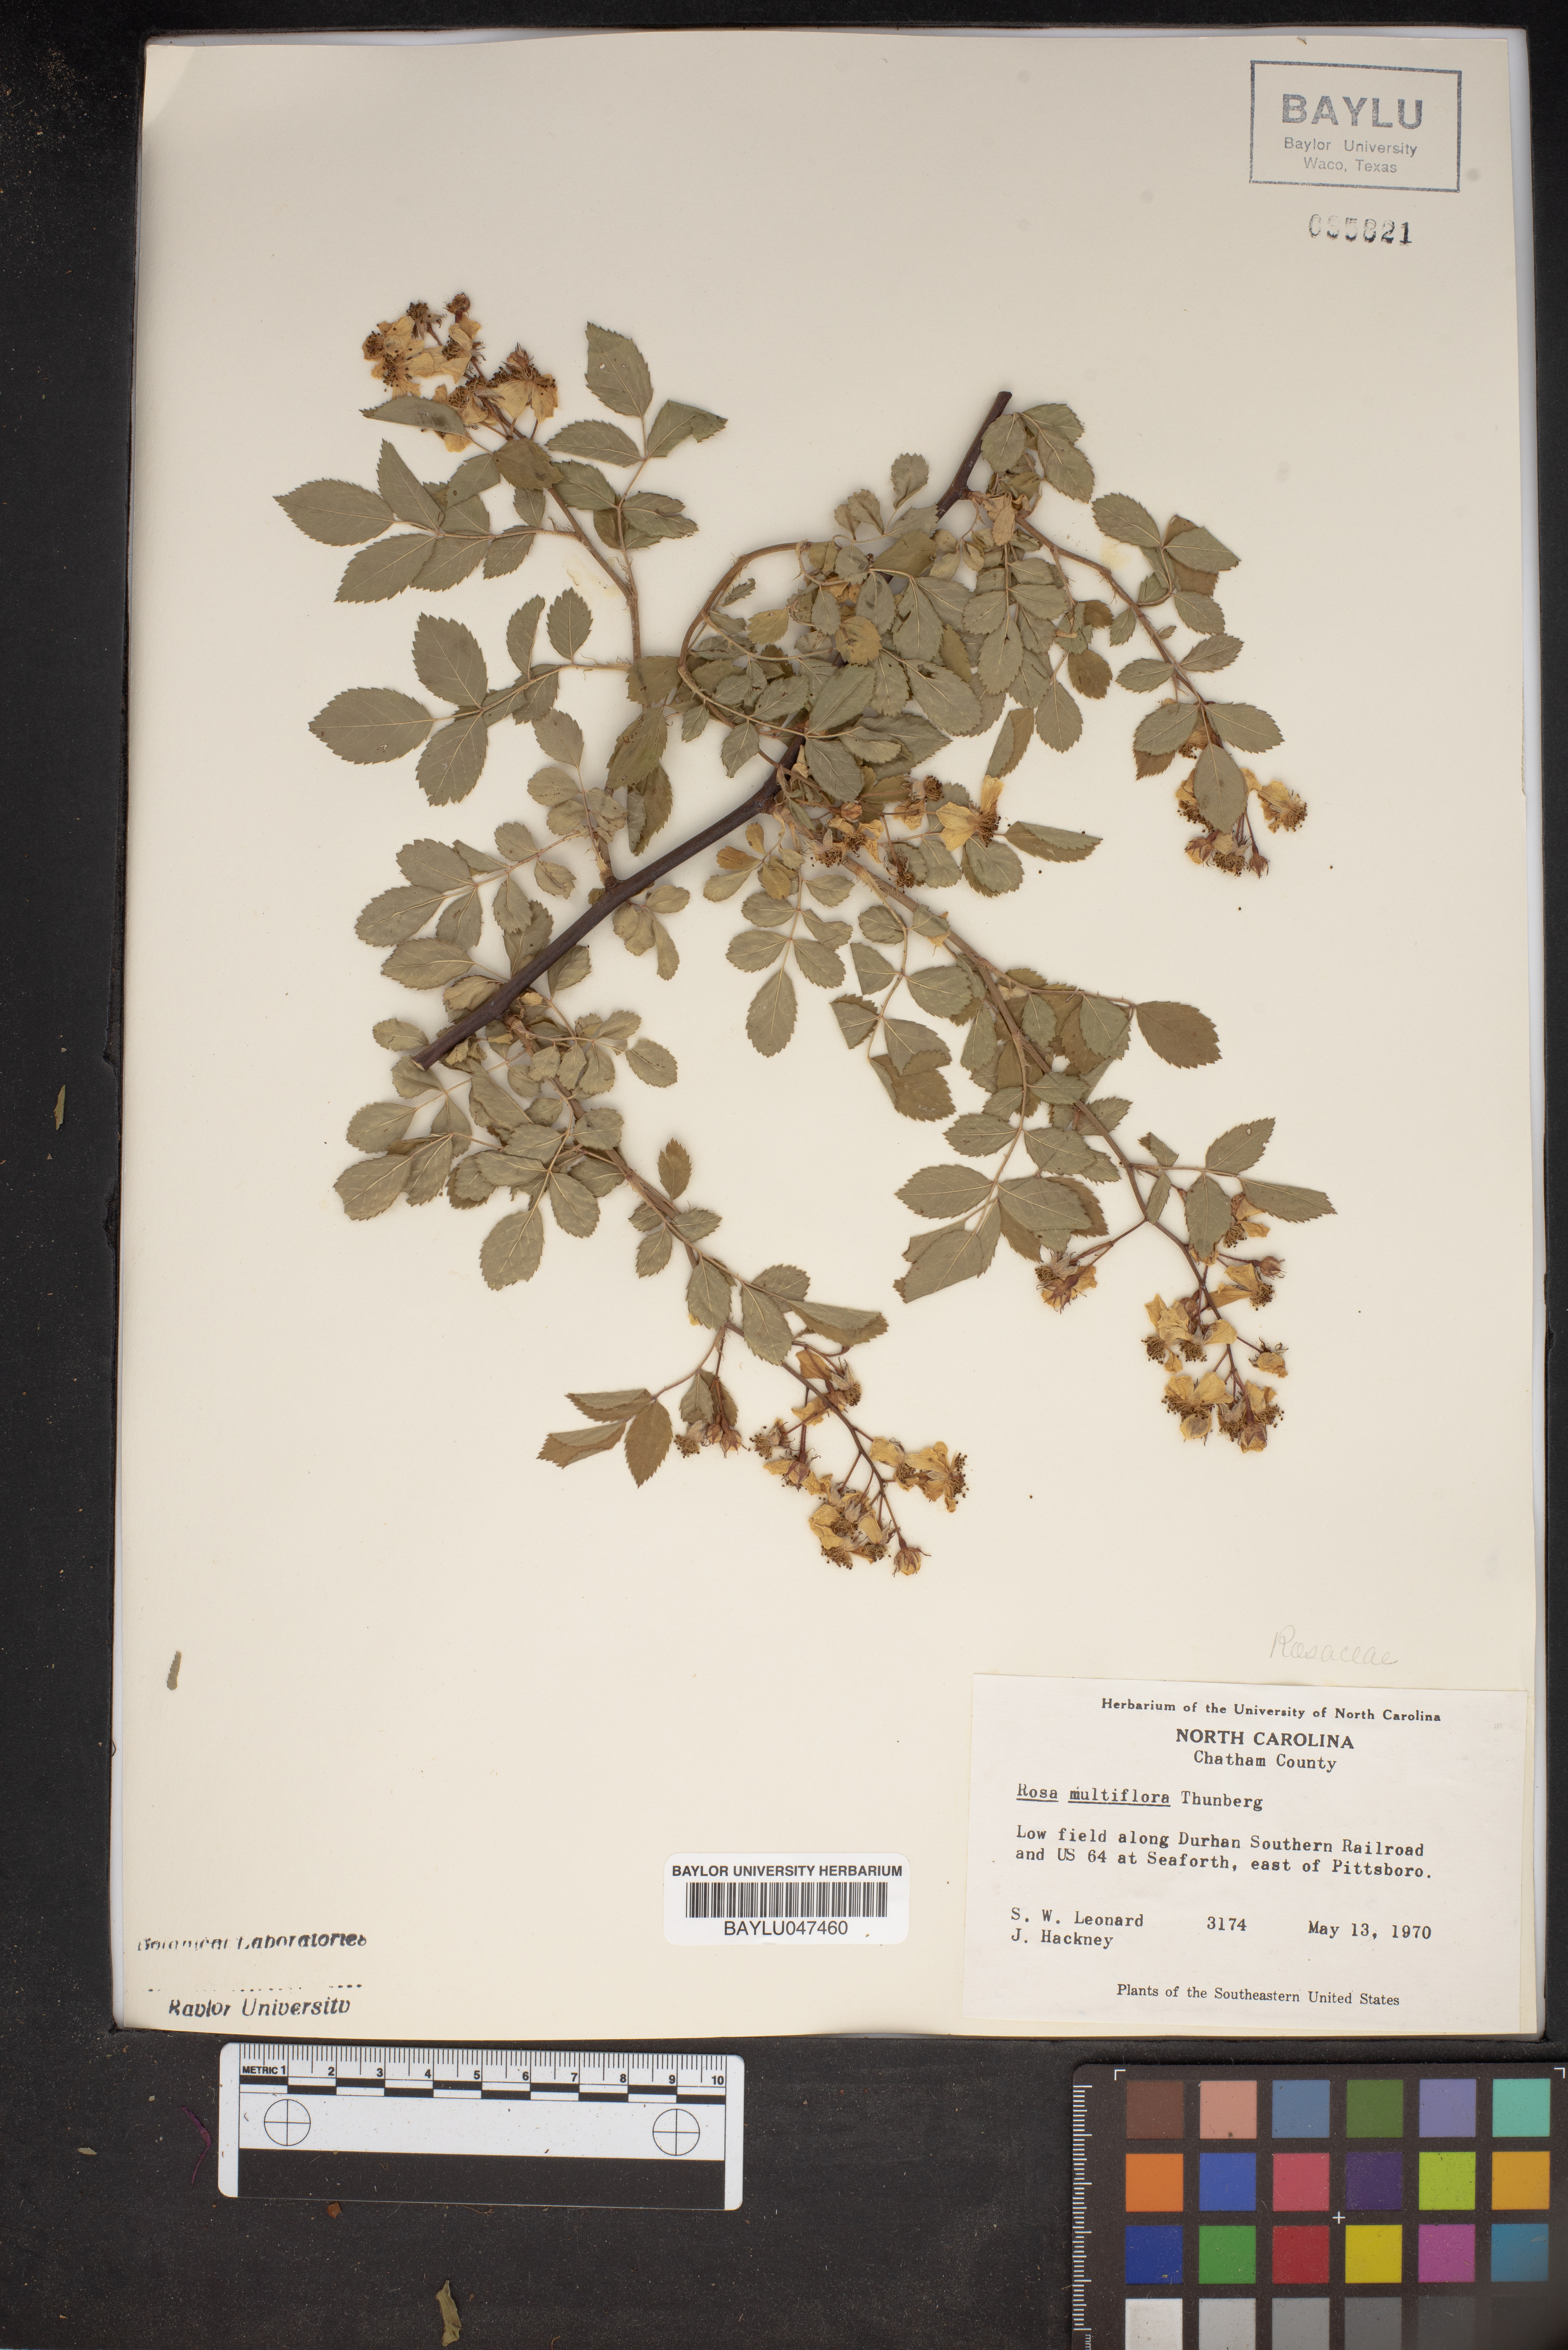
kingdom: Plantae
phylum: Tracheophyta
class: Magnoliopsida
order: Rosales
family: Rosaceae
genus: Rosa
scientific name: Rosa multiflora
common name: Multiflora rose
